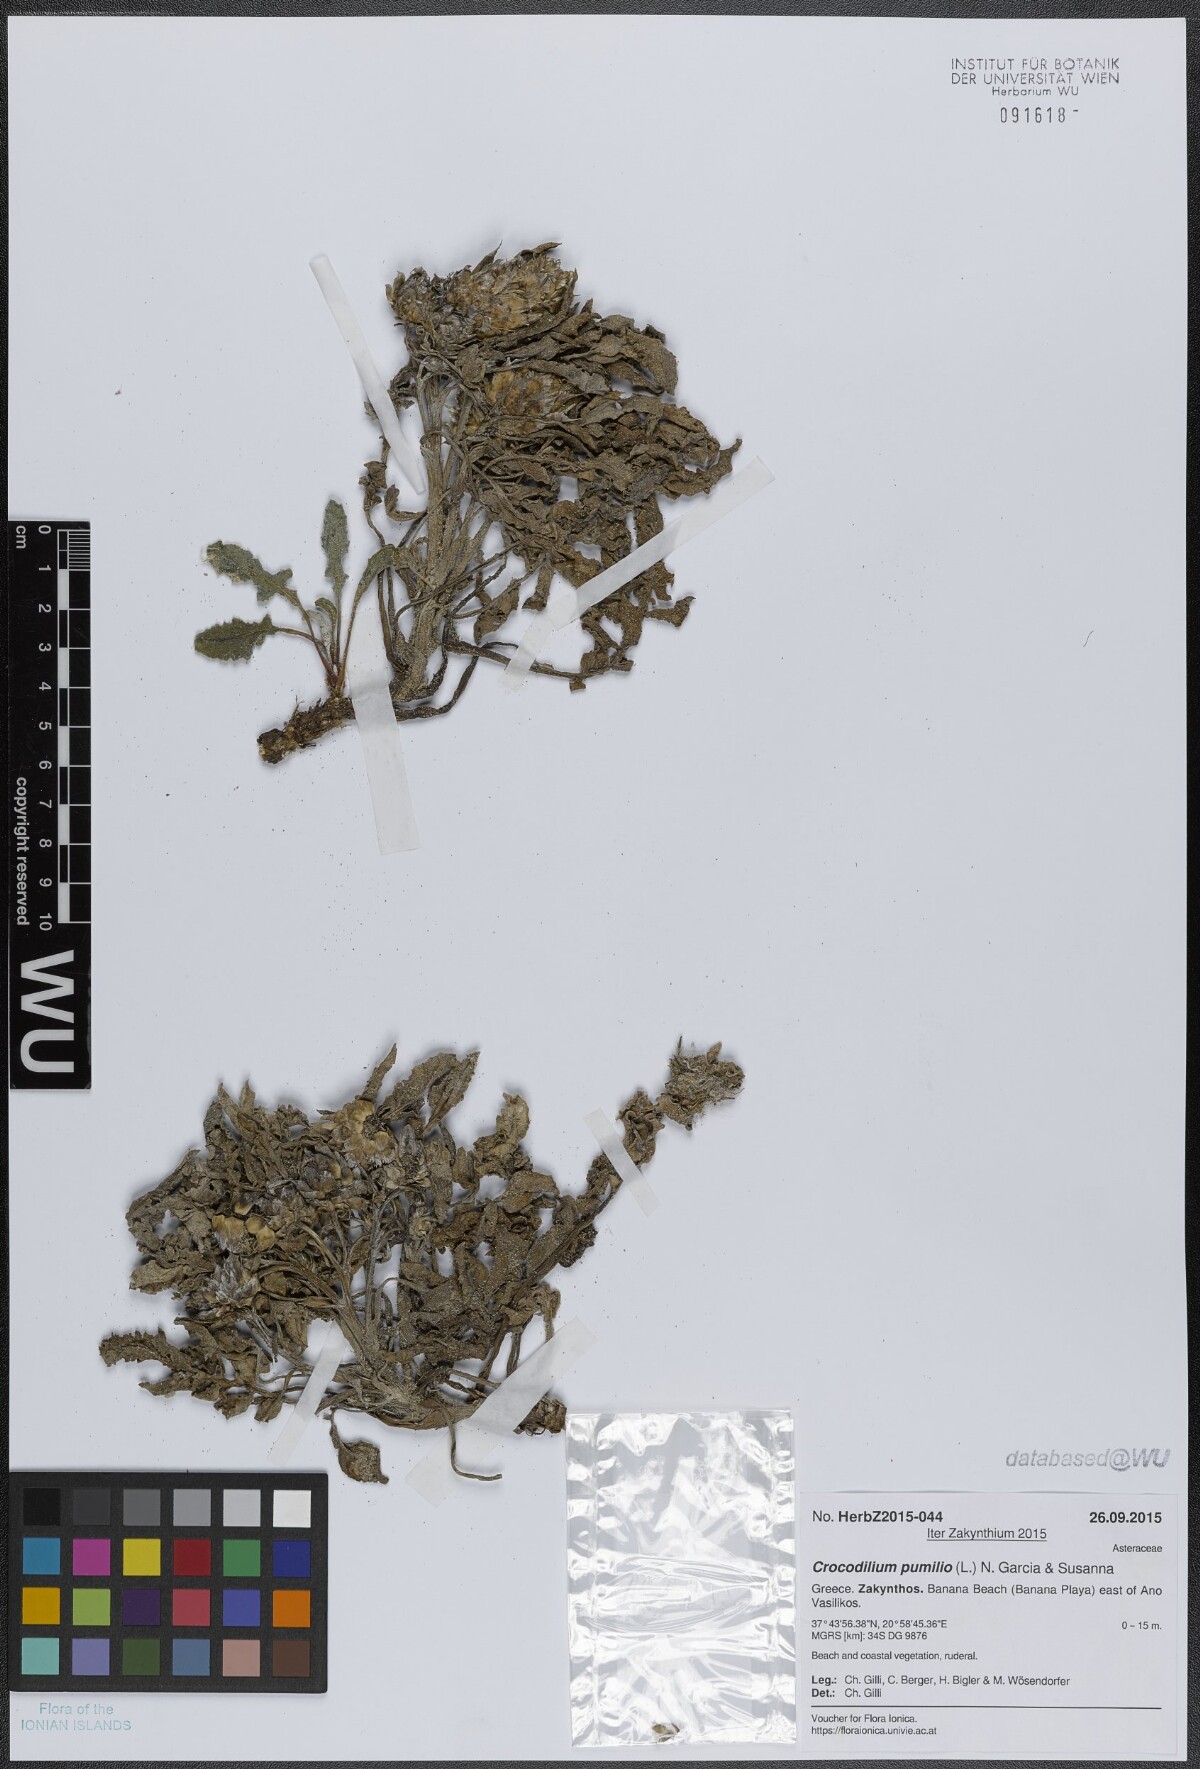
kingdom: Plantae
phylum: Tracheophyta
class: Magnoliopsida
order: Asterales
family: Asteraceae
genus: Crocodilium
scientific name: Crocodilium pumilio
